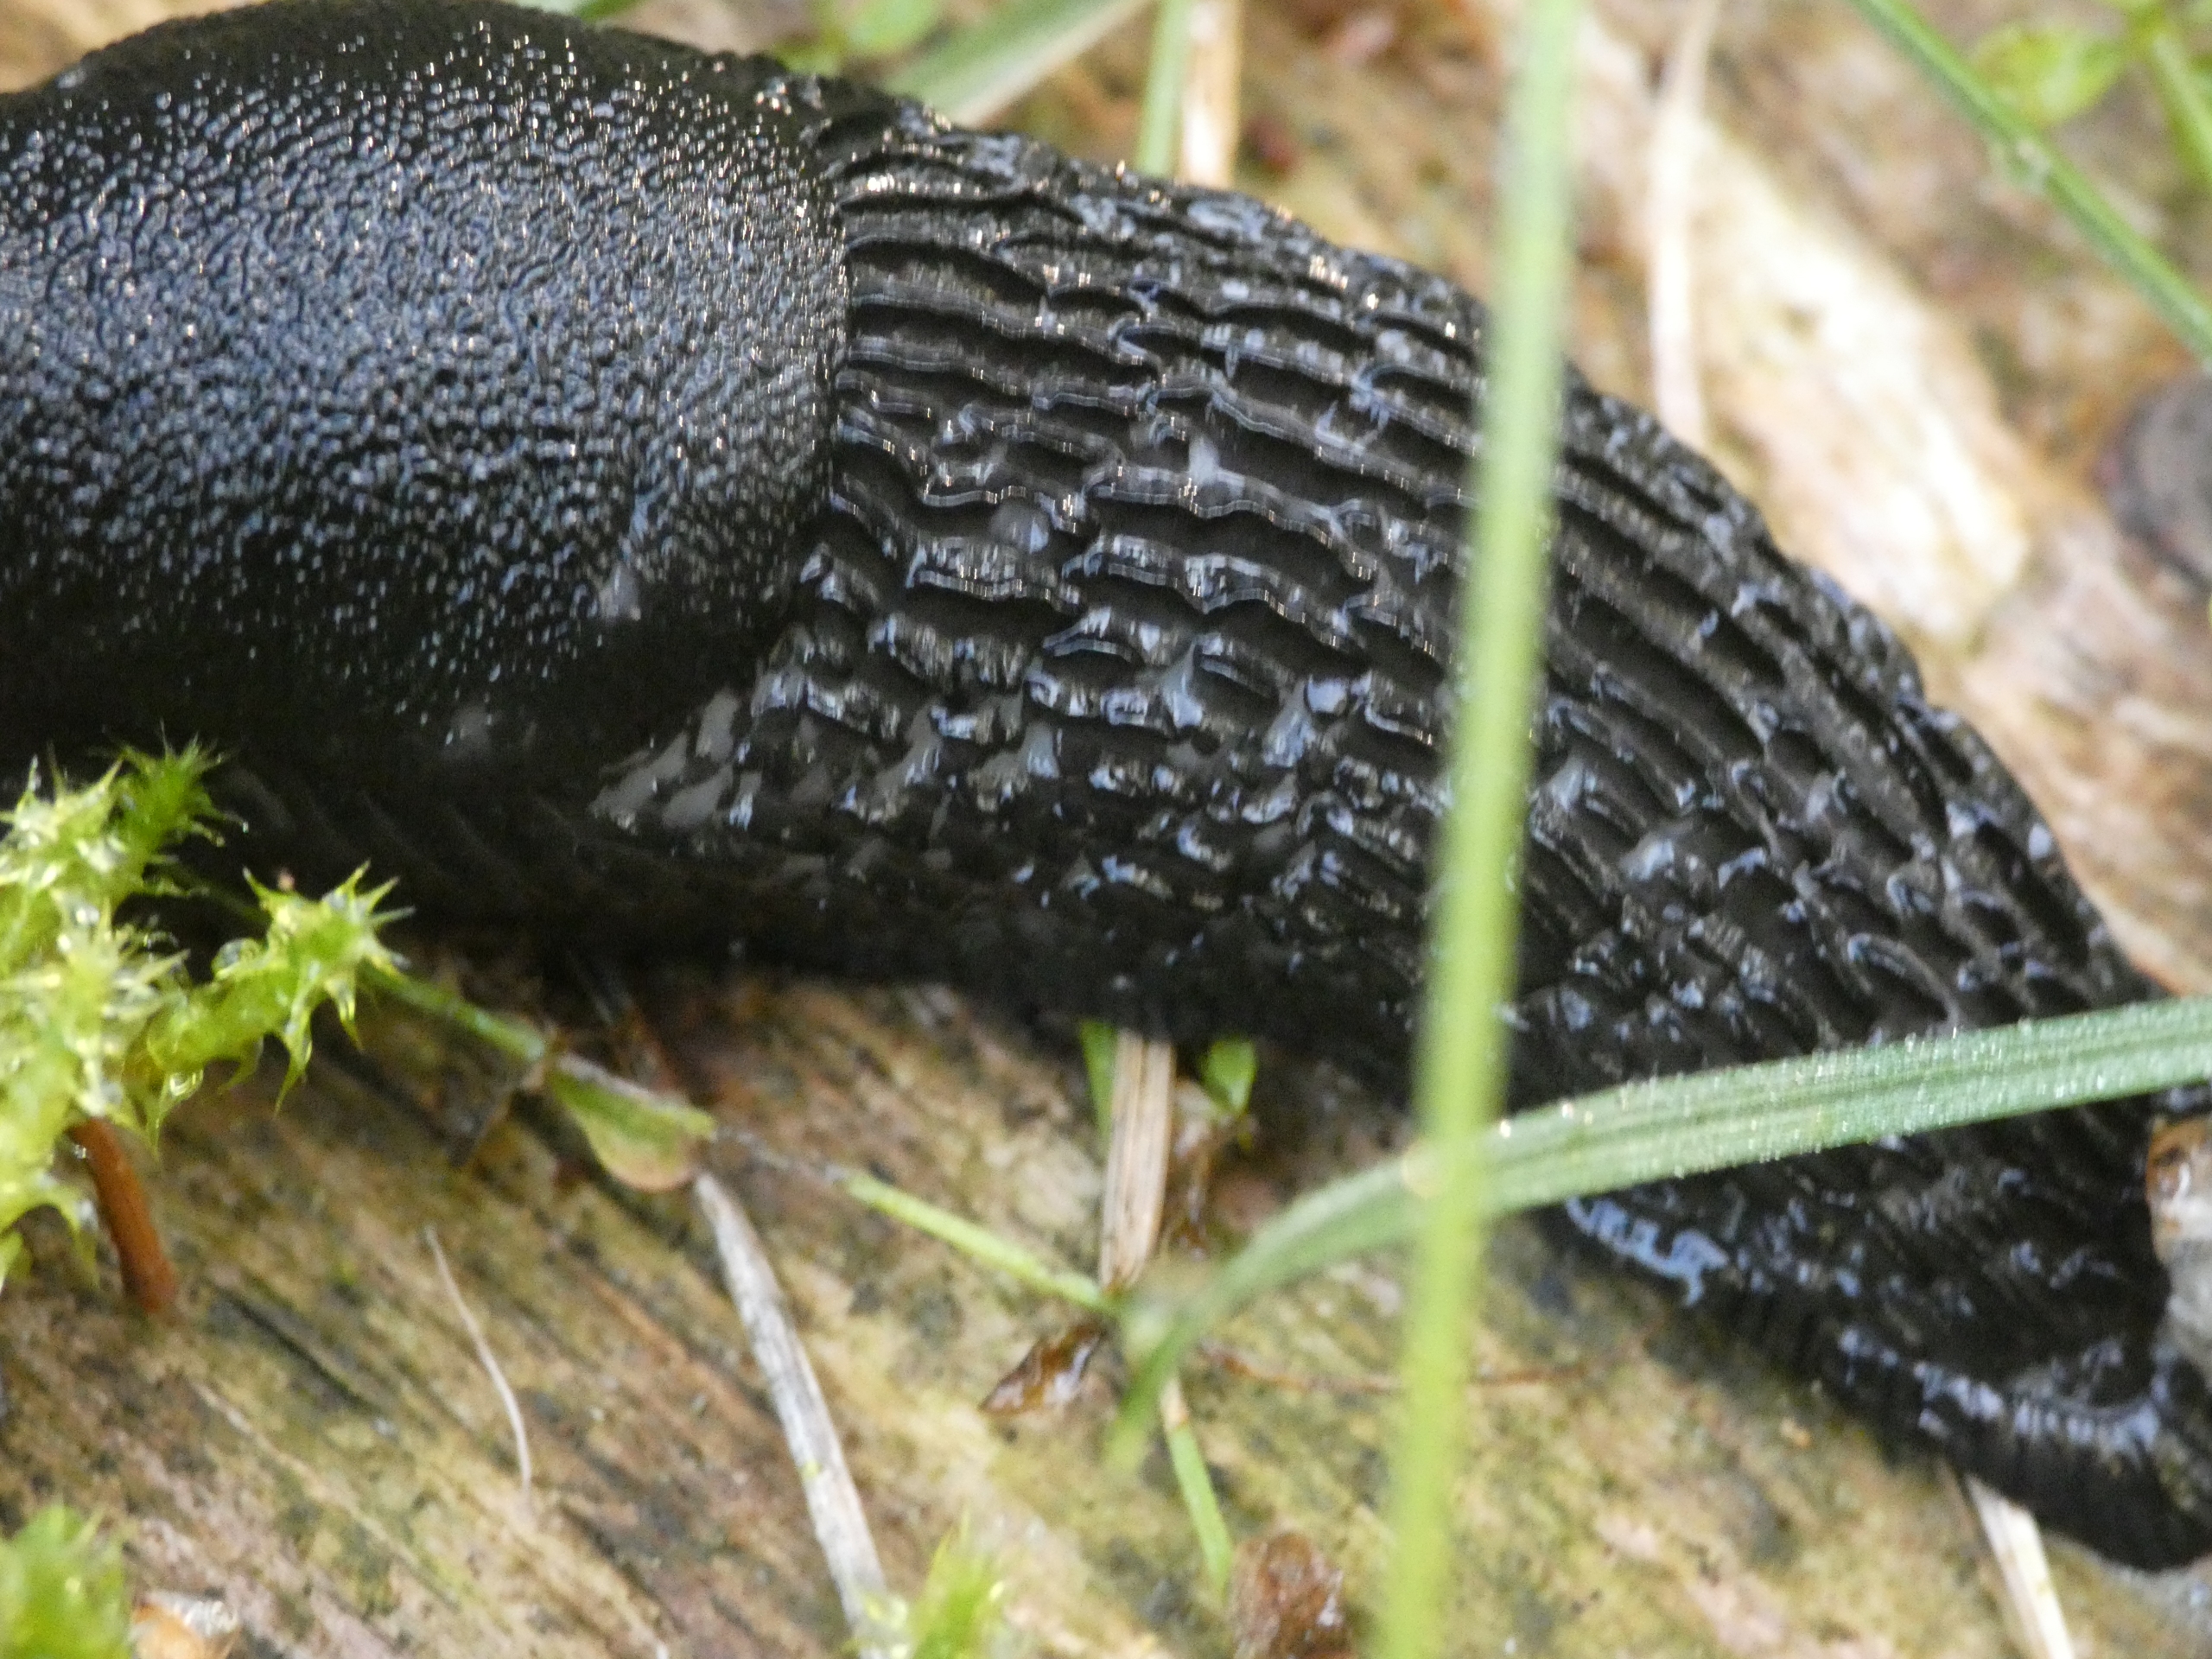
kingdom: Animalia
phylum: Mollusca
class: Gastropoda
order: Stylommatophora
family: Arionidae
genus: Arion
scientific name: Arion ater
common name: Sort skovsnegl
